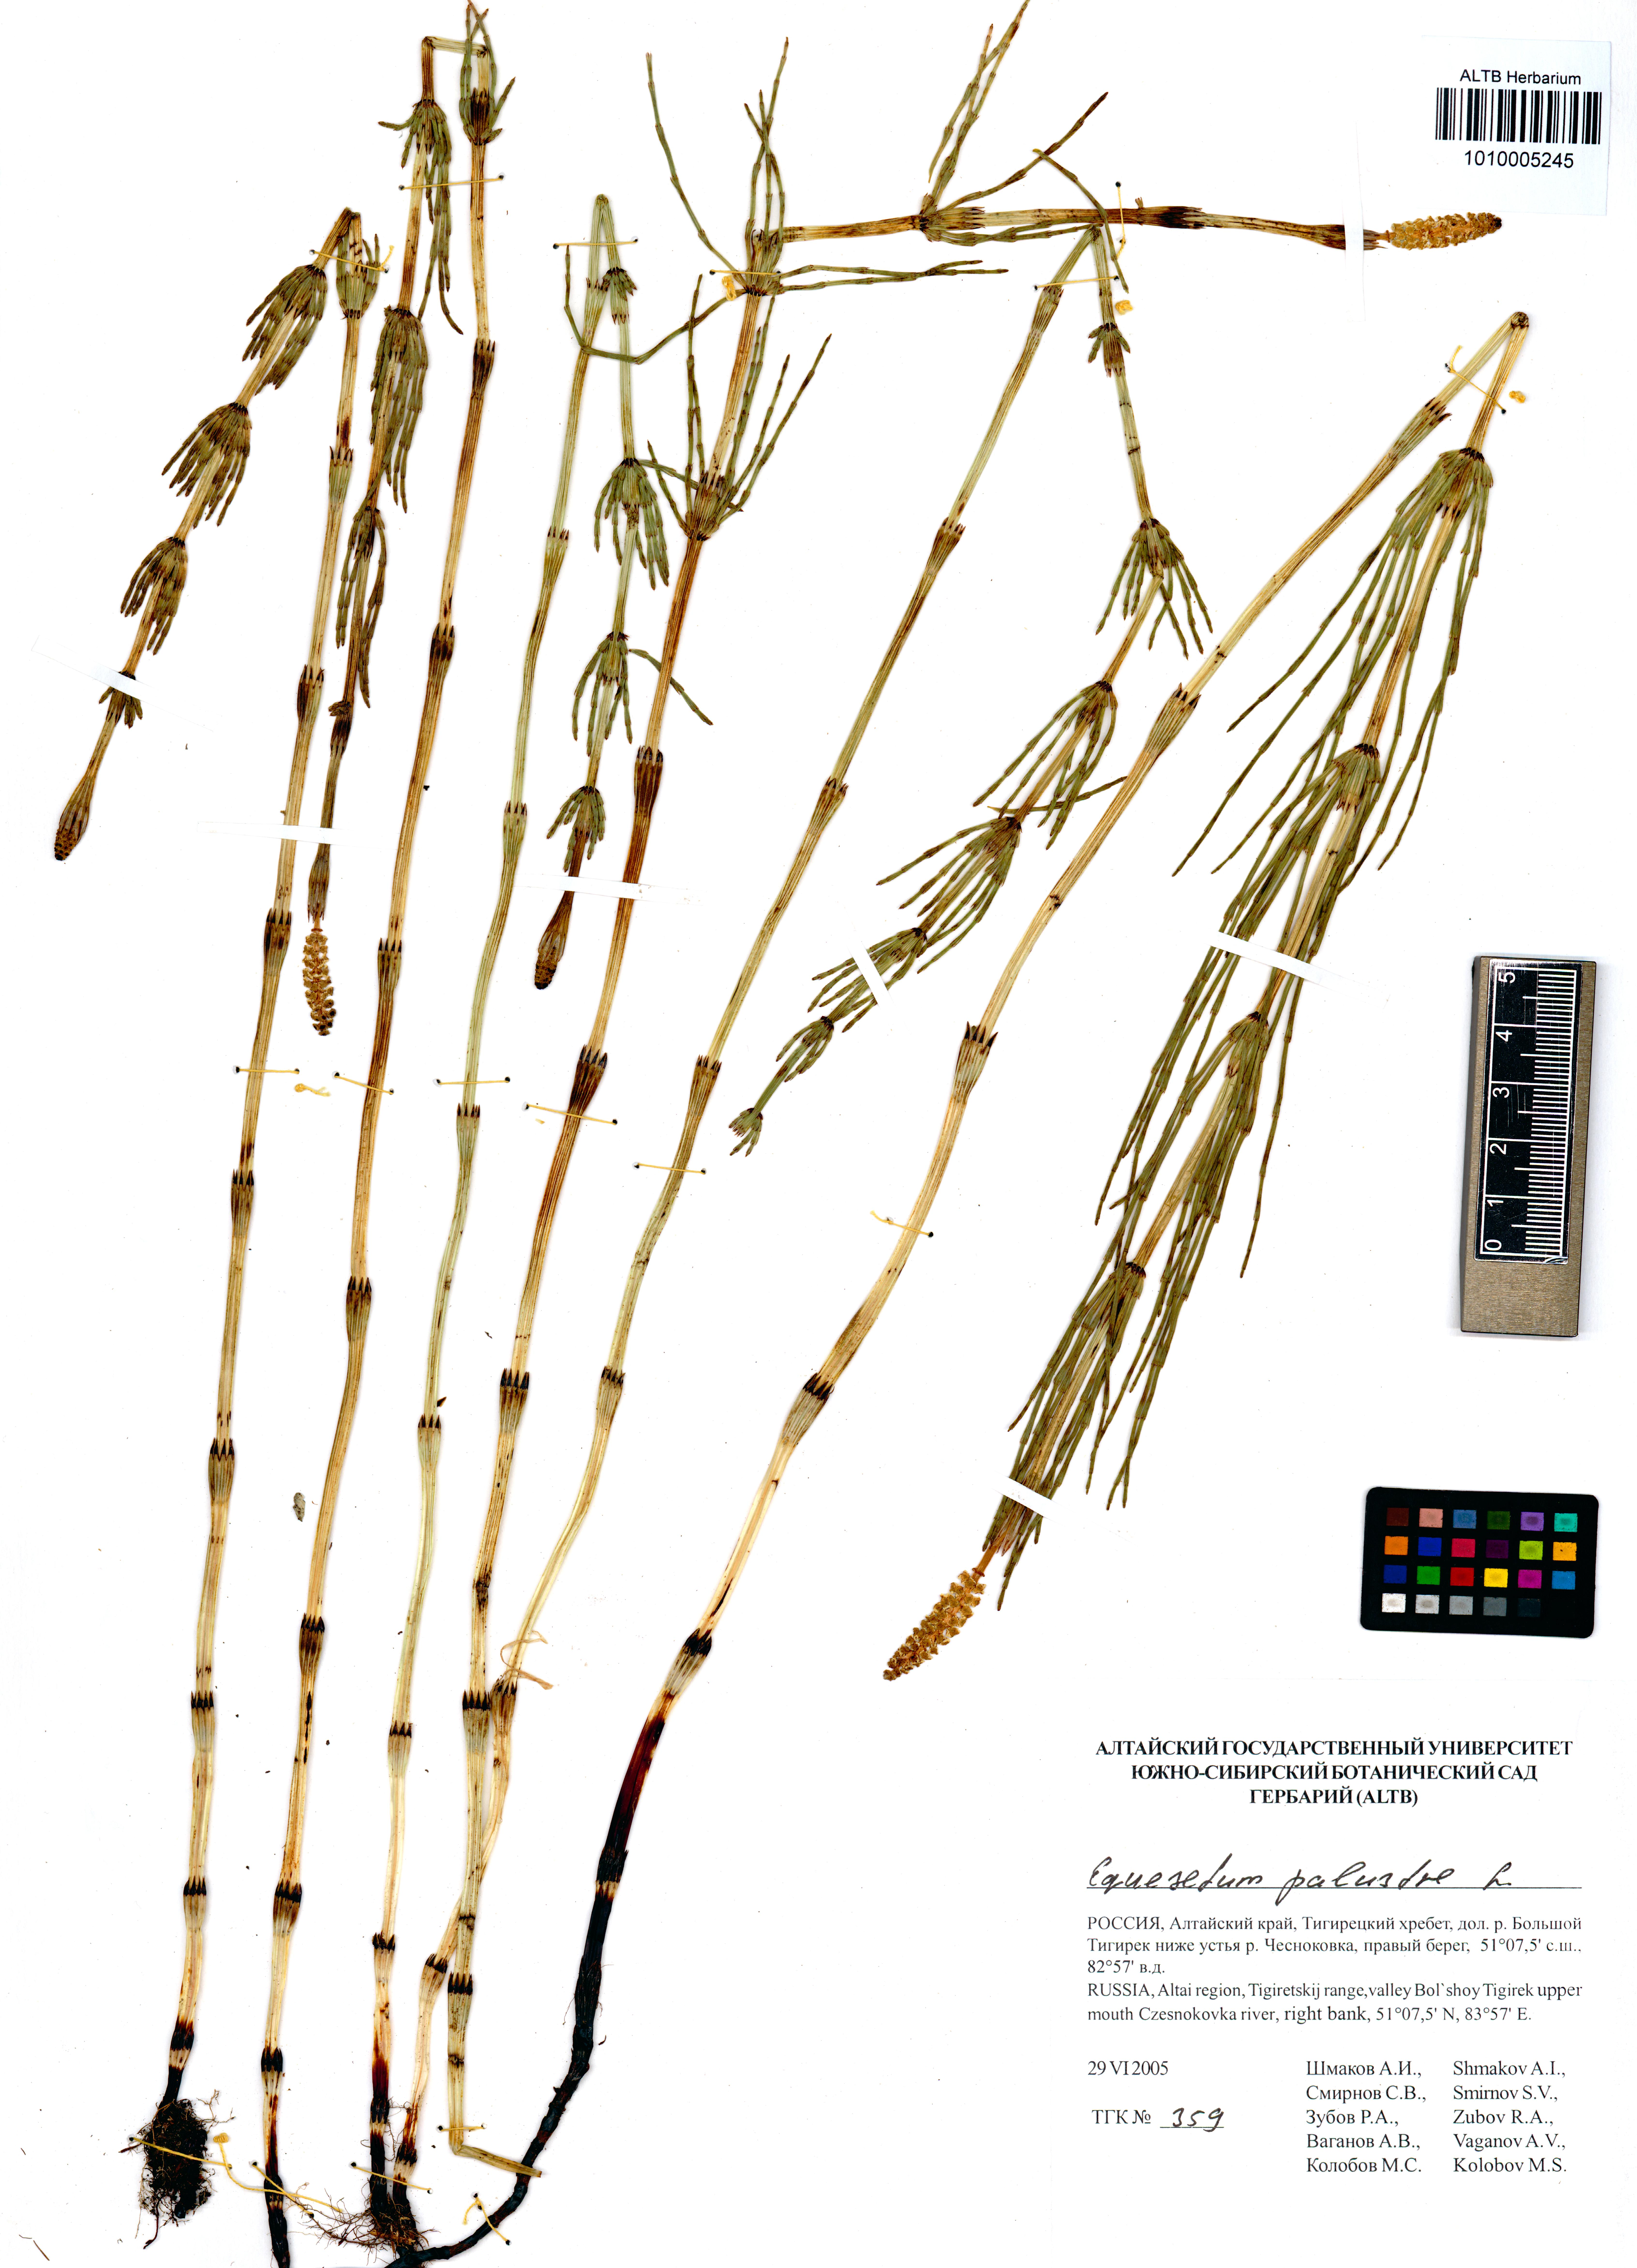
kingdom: Plantae
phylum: Tracheophyta
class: Polypodiopsida
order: Equisetales
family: Equisetaceae
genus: Equisetum
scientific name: Equisetum palustre
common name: Marsh horsetail
